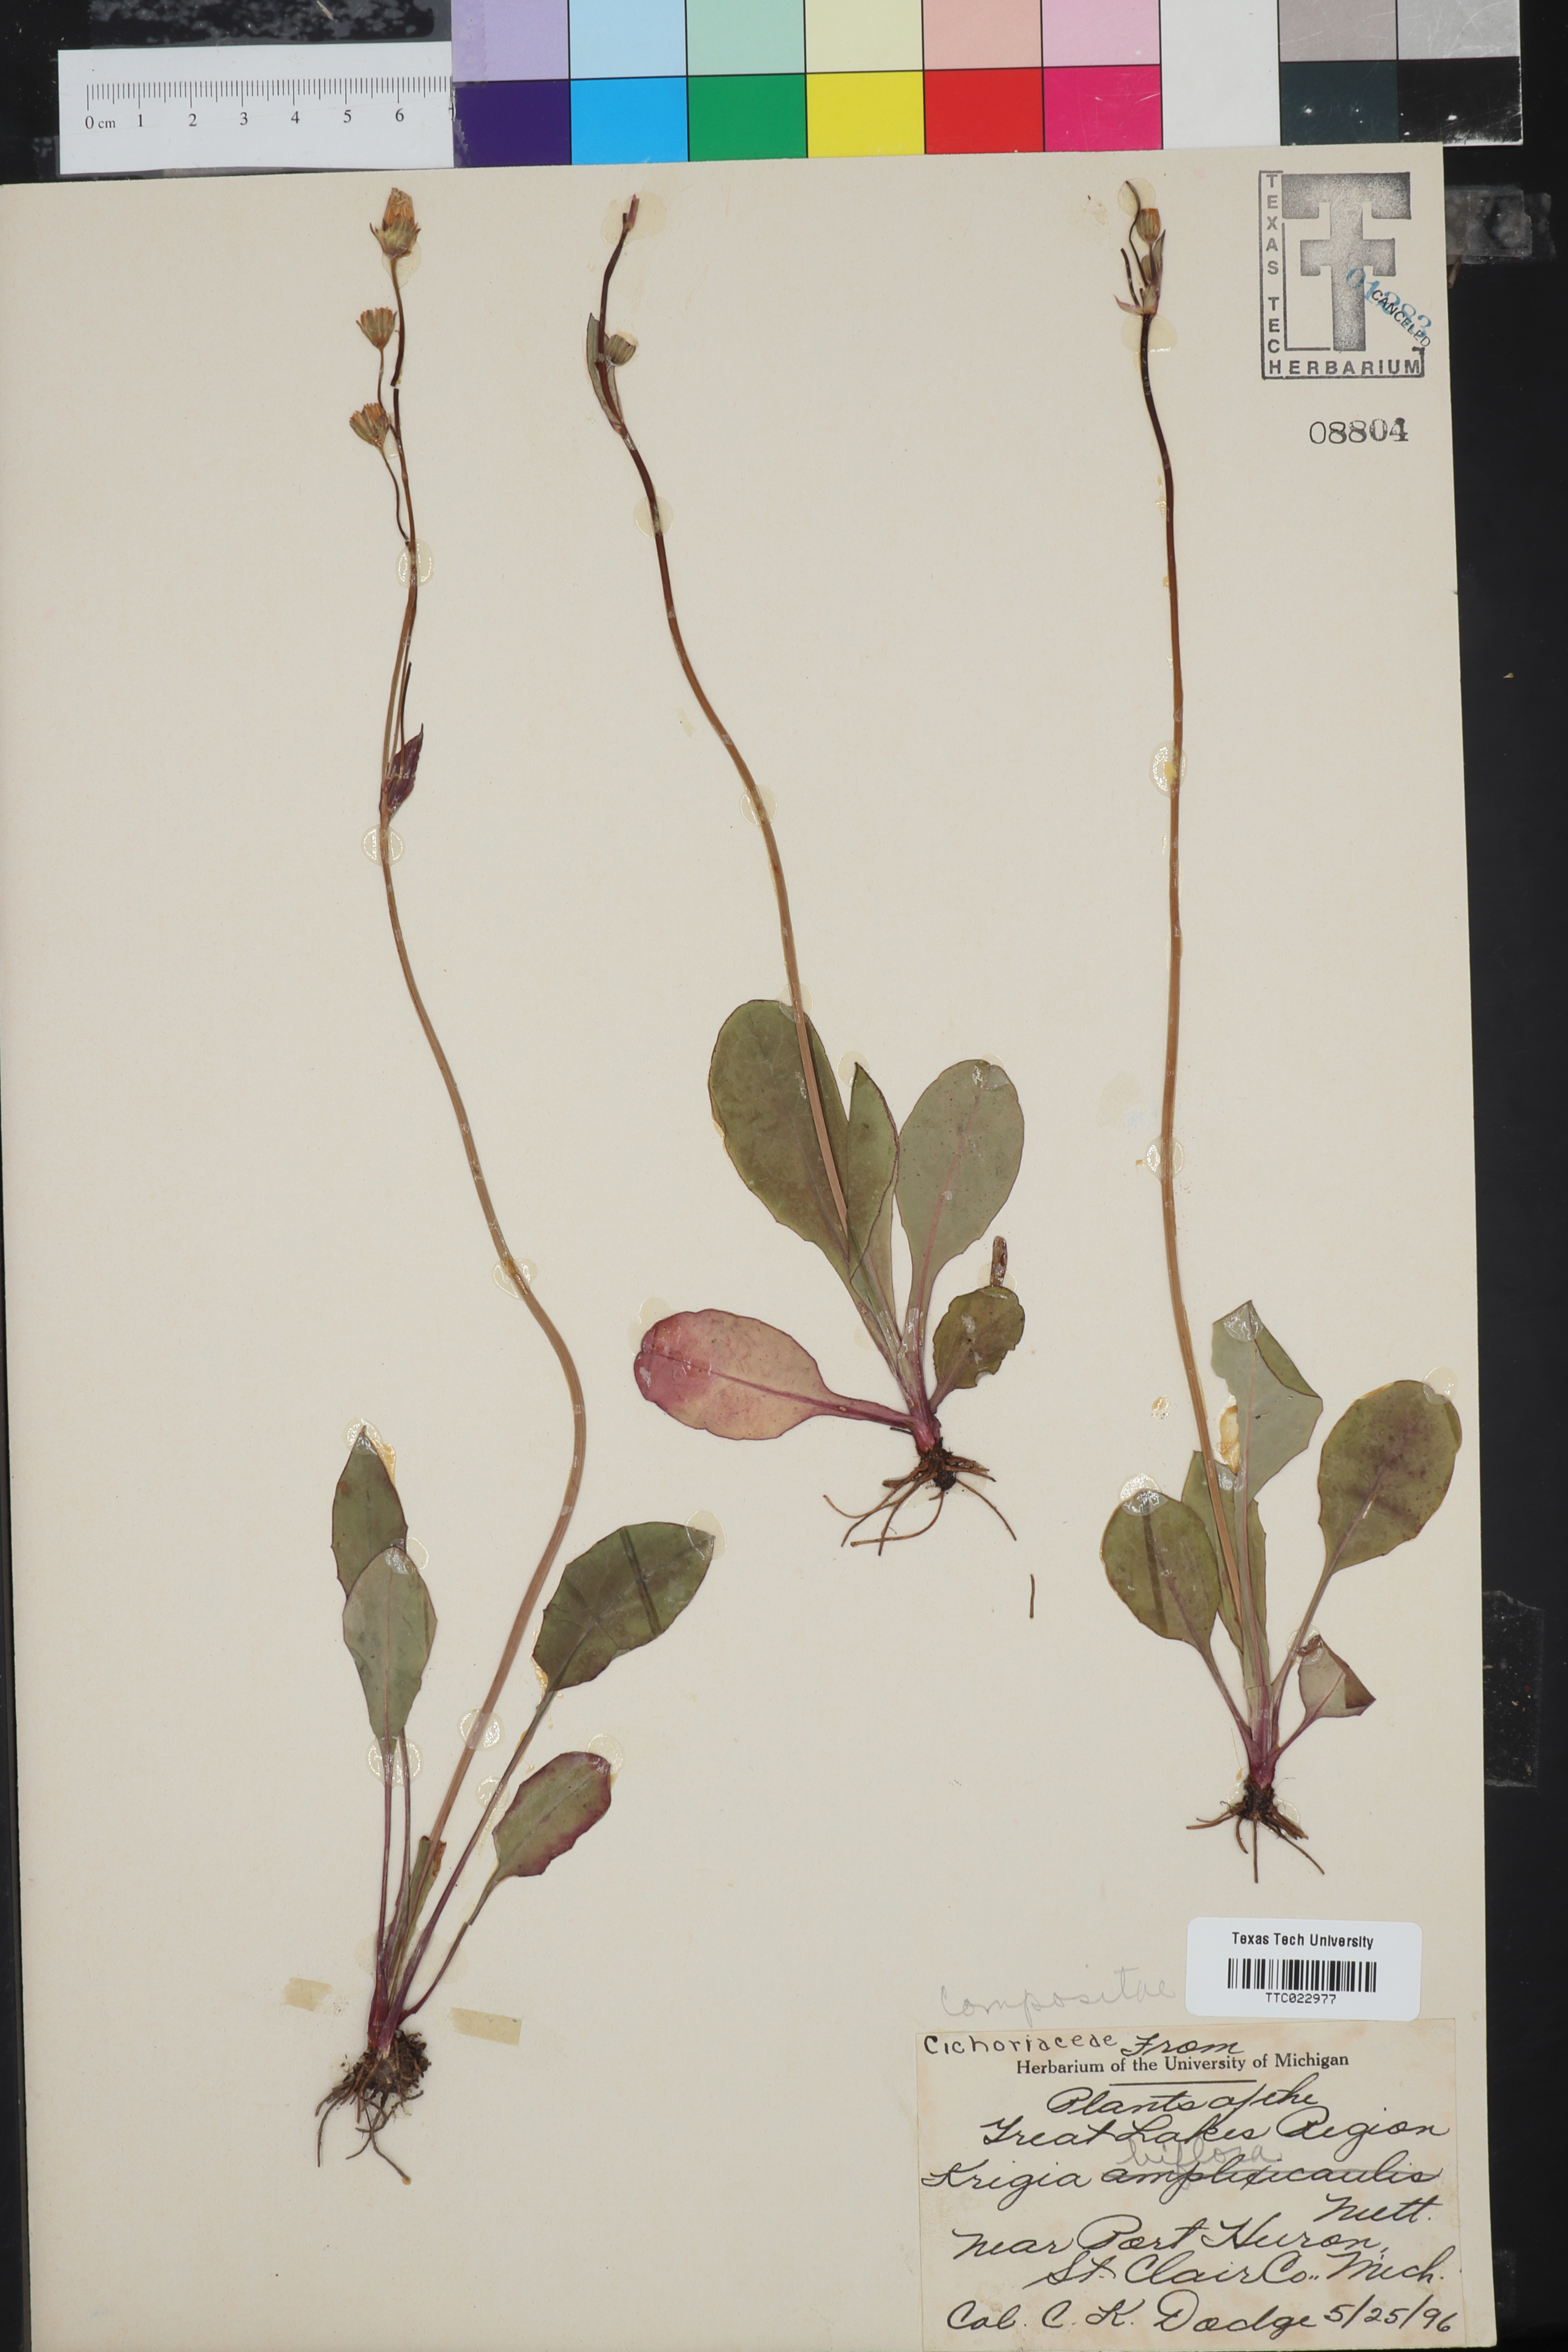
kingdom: Plantae
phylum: Tracheophyta
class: Magnoliopsida
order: Asterales
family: Asteraceae
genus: Krigia
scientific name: Krigia biflora
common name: Orange dwarf-dandelion
